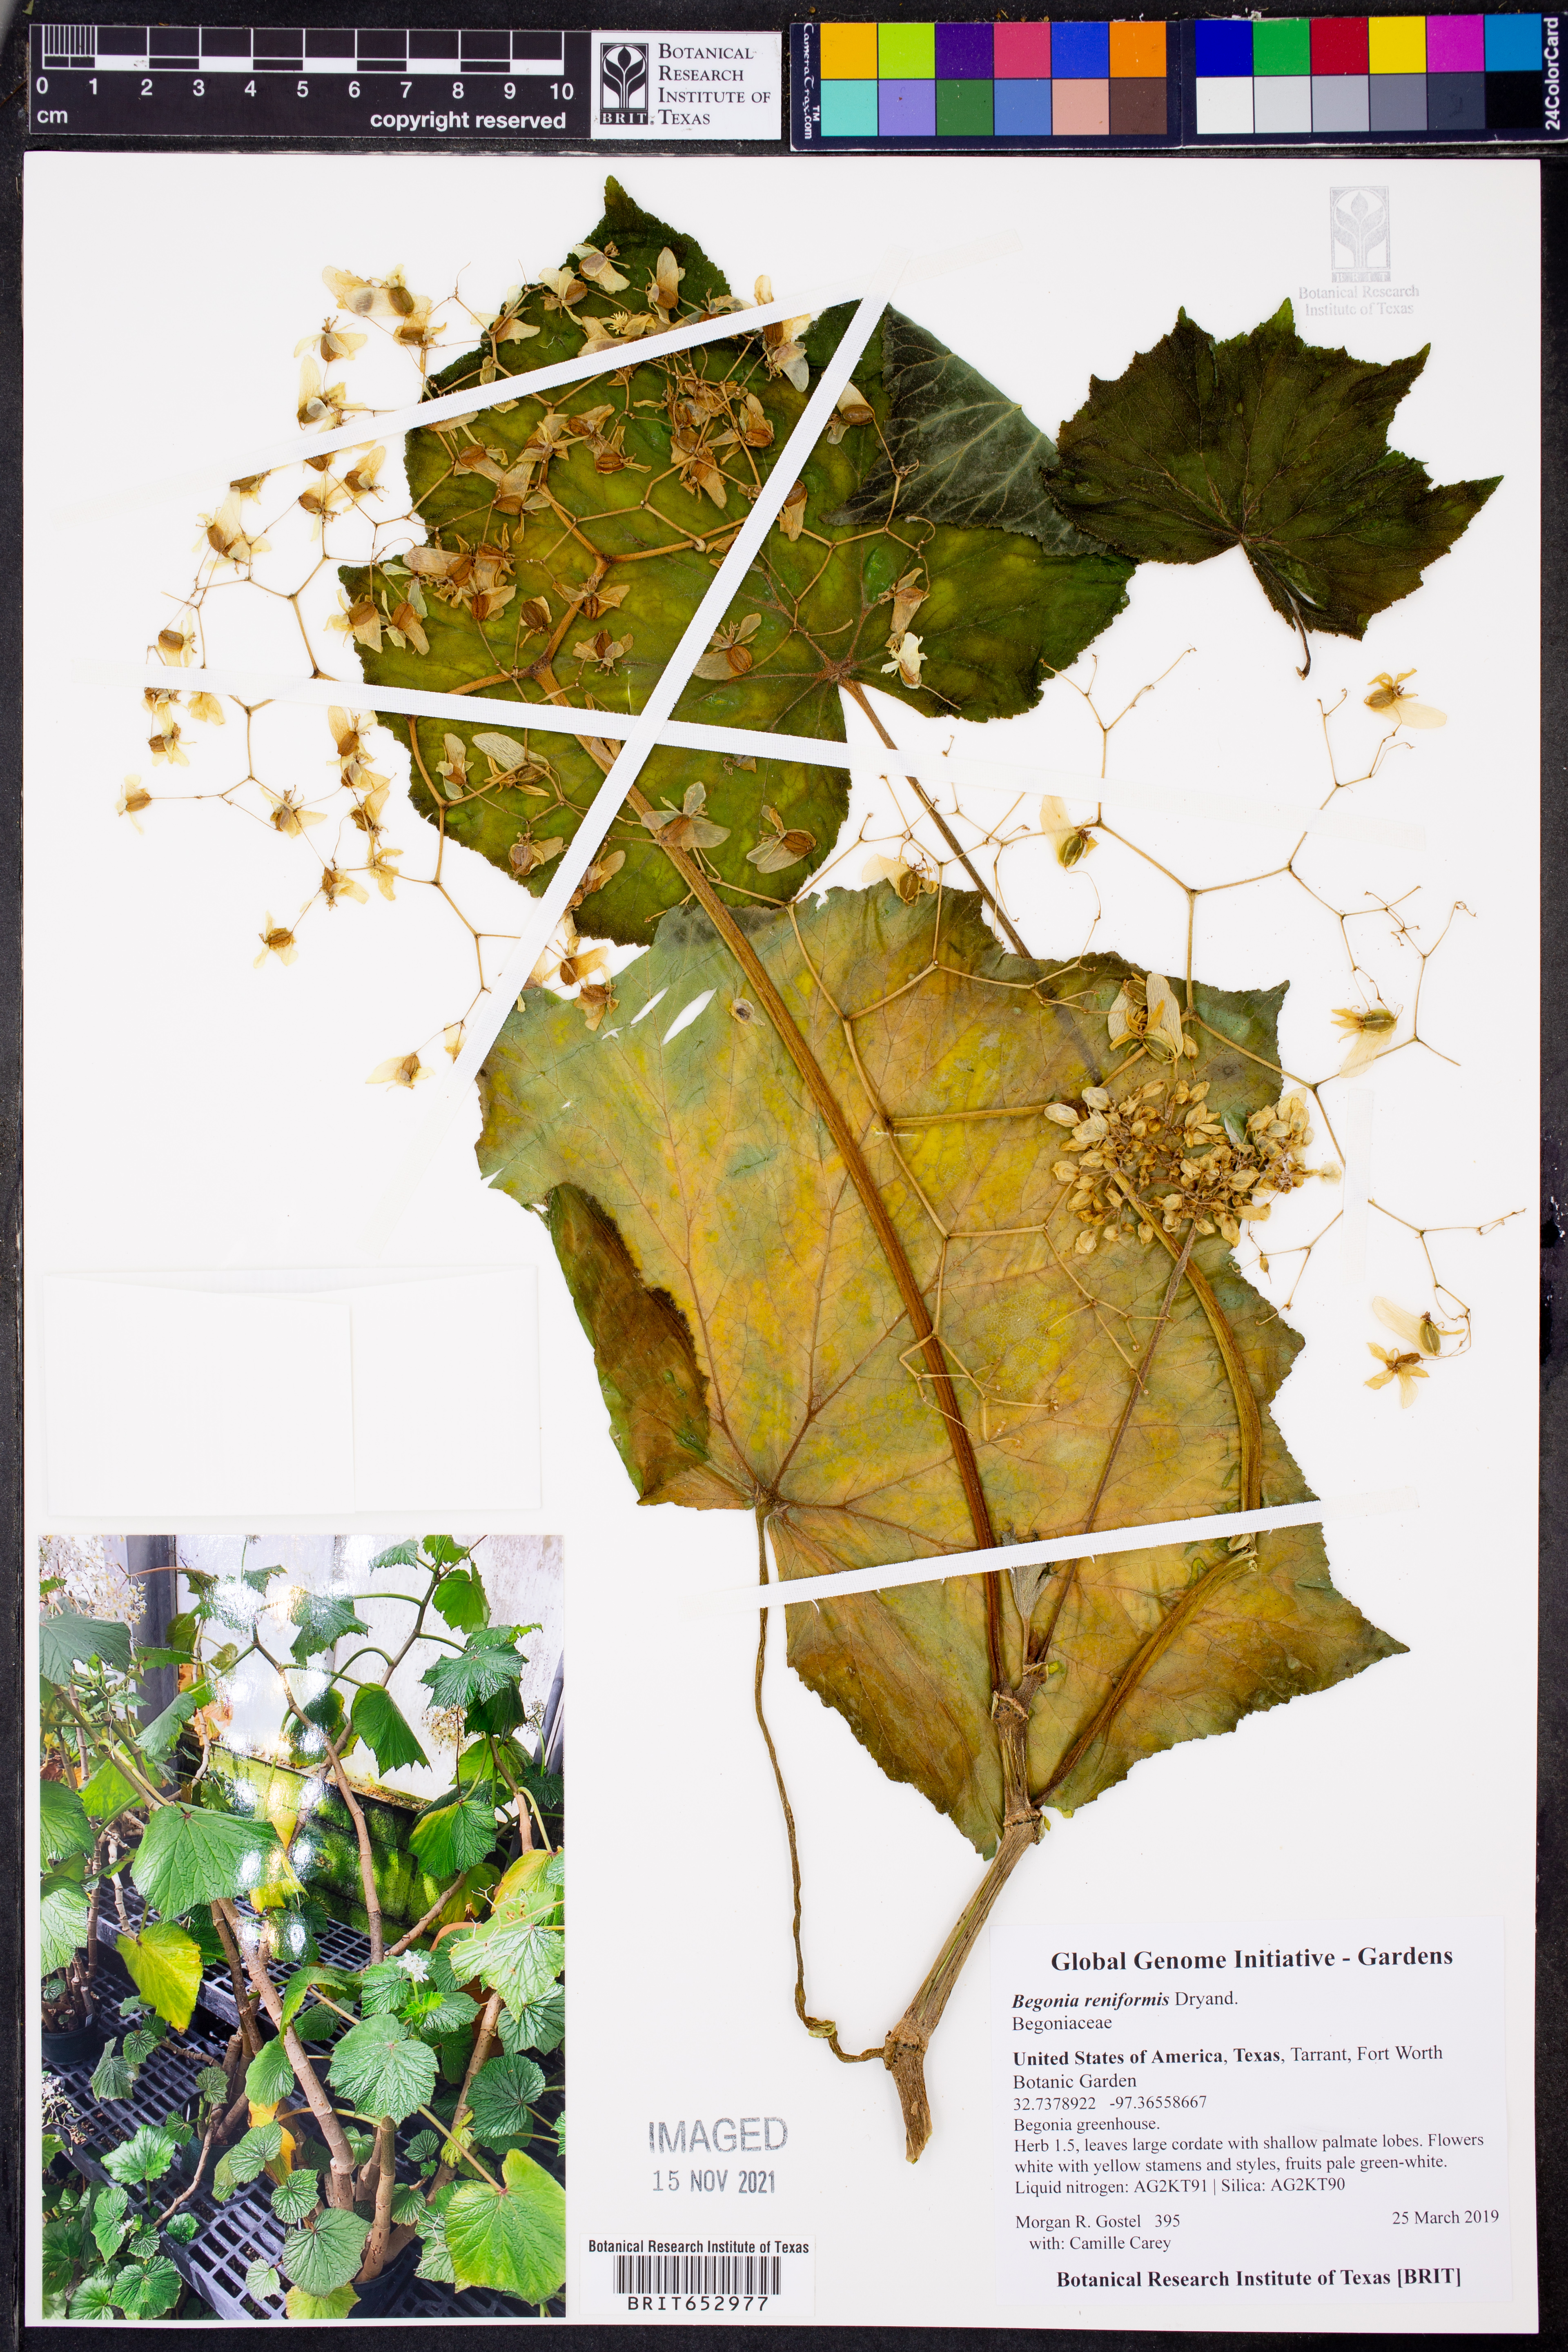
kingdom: Plantae
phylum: Tracheophyta
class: Magnoliopsida
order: Cucurbitales
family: Begoniaceae
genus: Begonia
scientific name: Begonia reniformis
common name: Grapeleaf begonia
